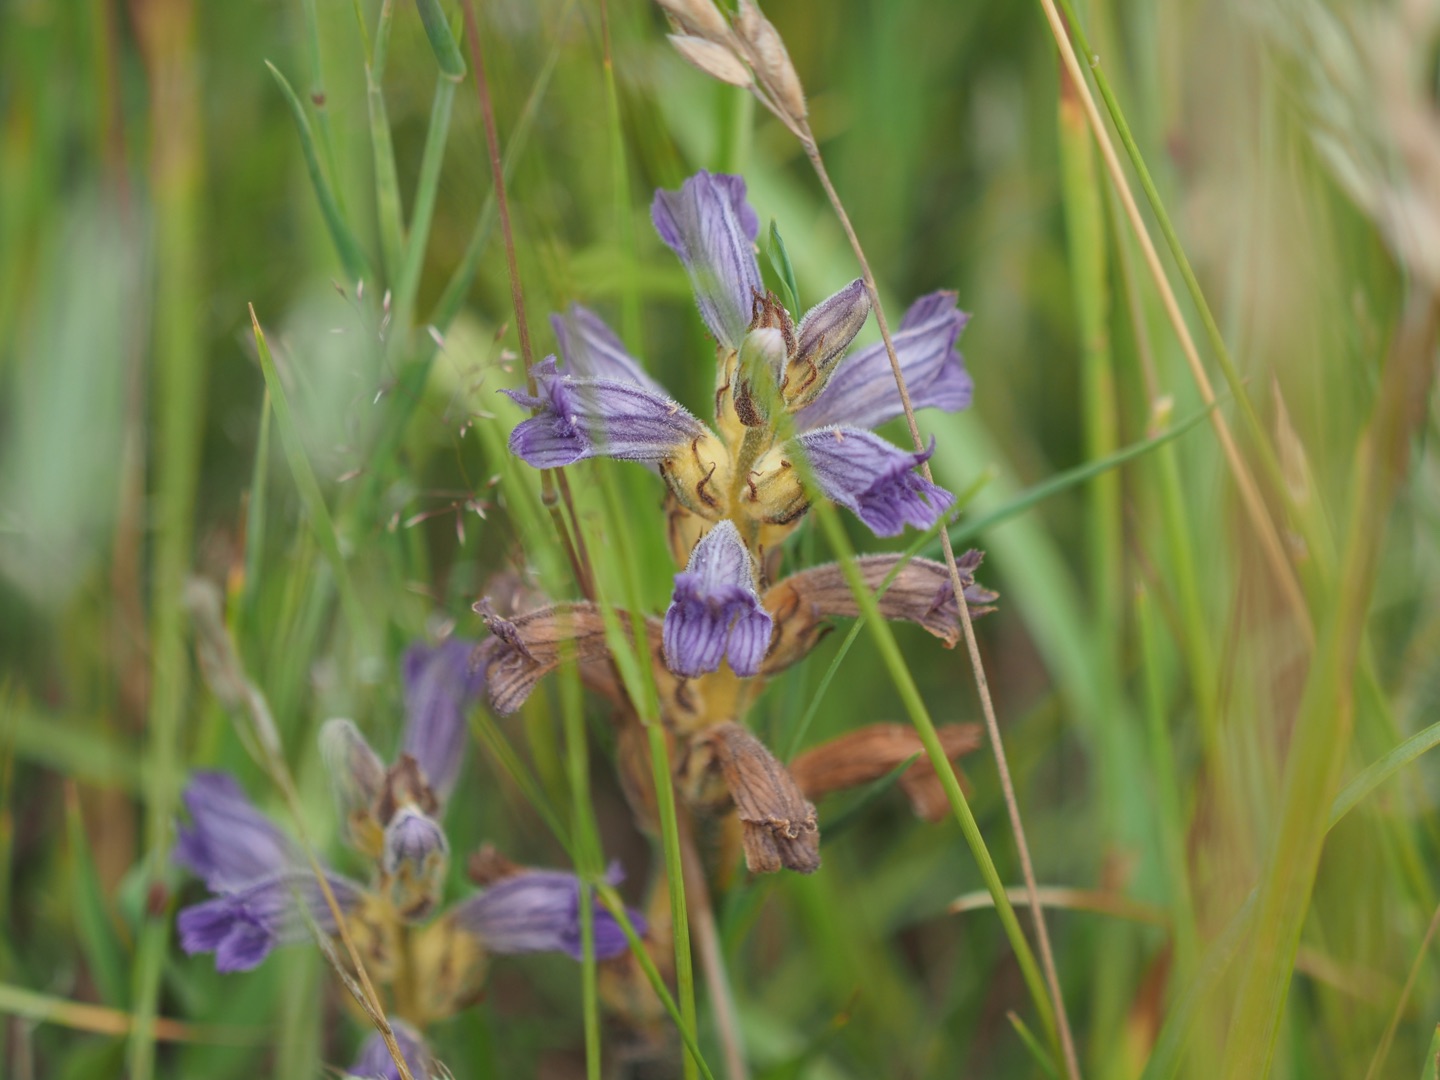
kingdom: Plantae
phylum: Tracheophyta
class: Magnoliopsida
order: Lamiales
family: Orobanchaceae
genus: Phelipanche
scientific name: Phelipanche purpurea
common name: Røllike-gyvelkvæler
